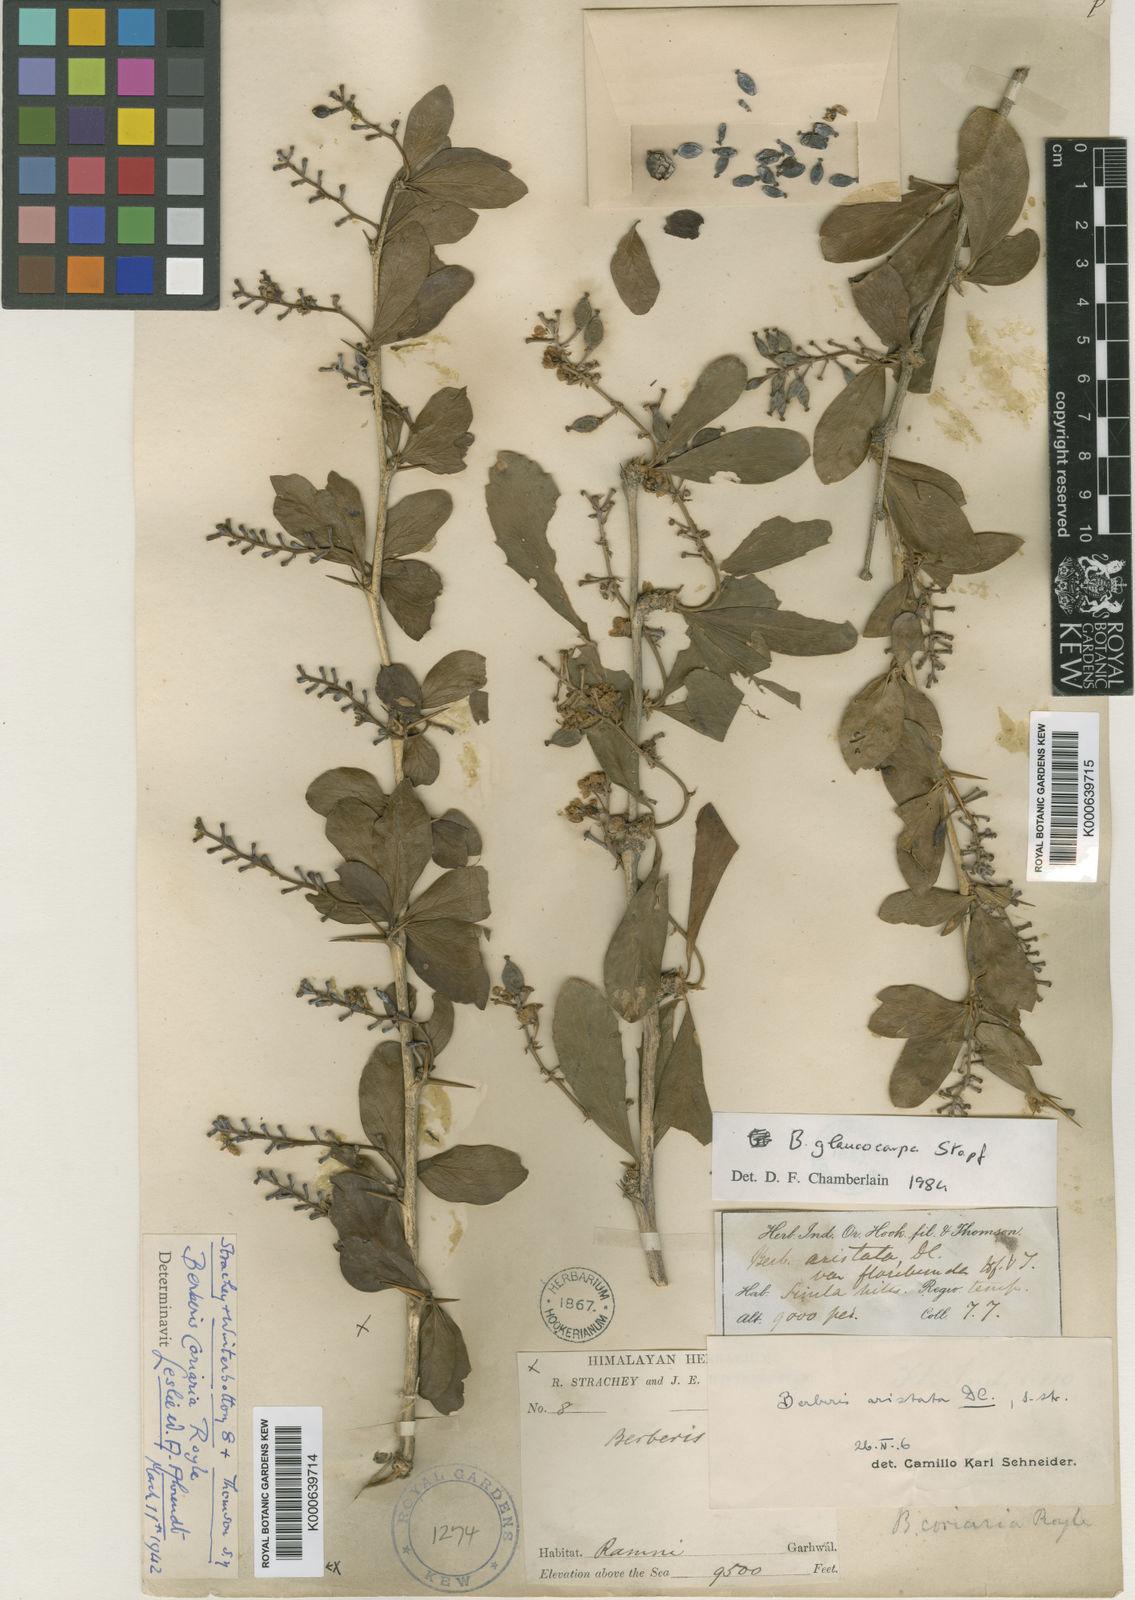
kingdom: Plantae
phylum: Tracheophyta
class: Magnoliopsida
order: Ranunculales
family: Berberidaceae
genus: Berberis
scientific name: Berberis coriaria
